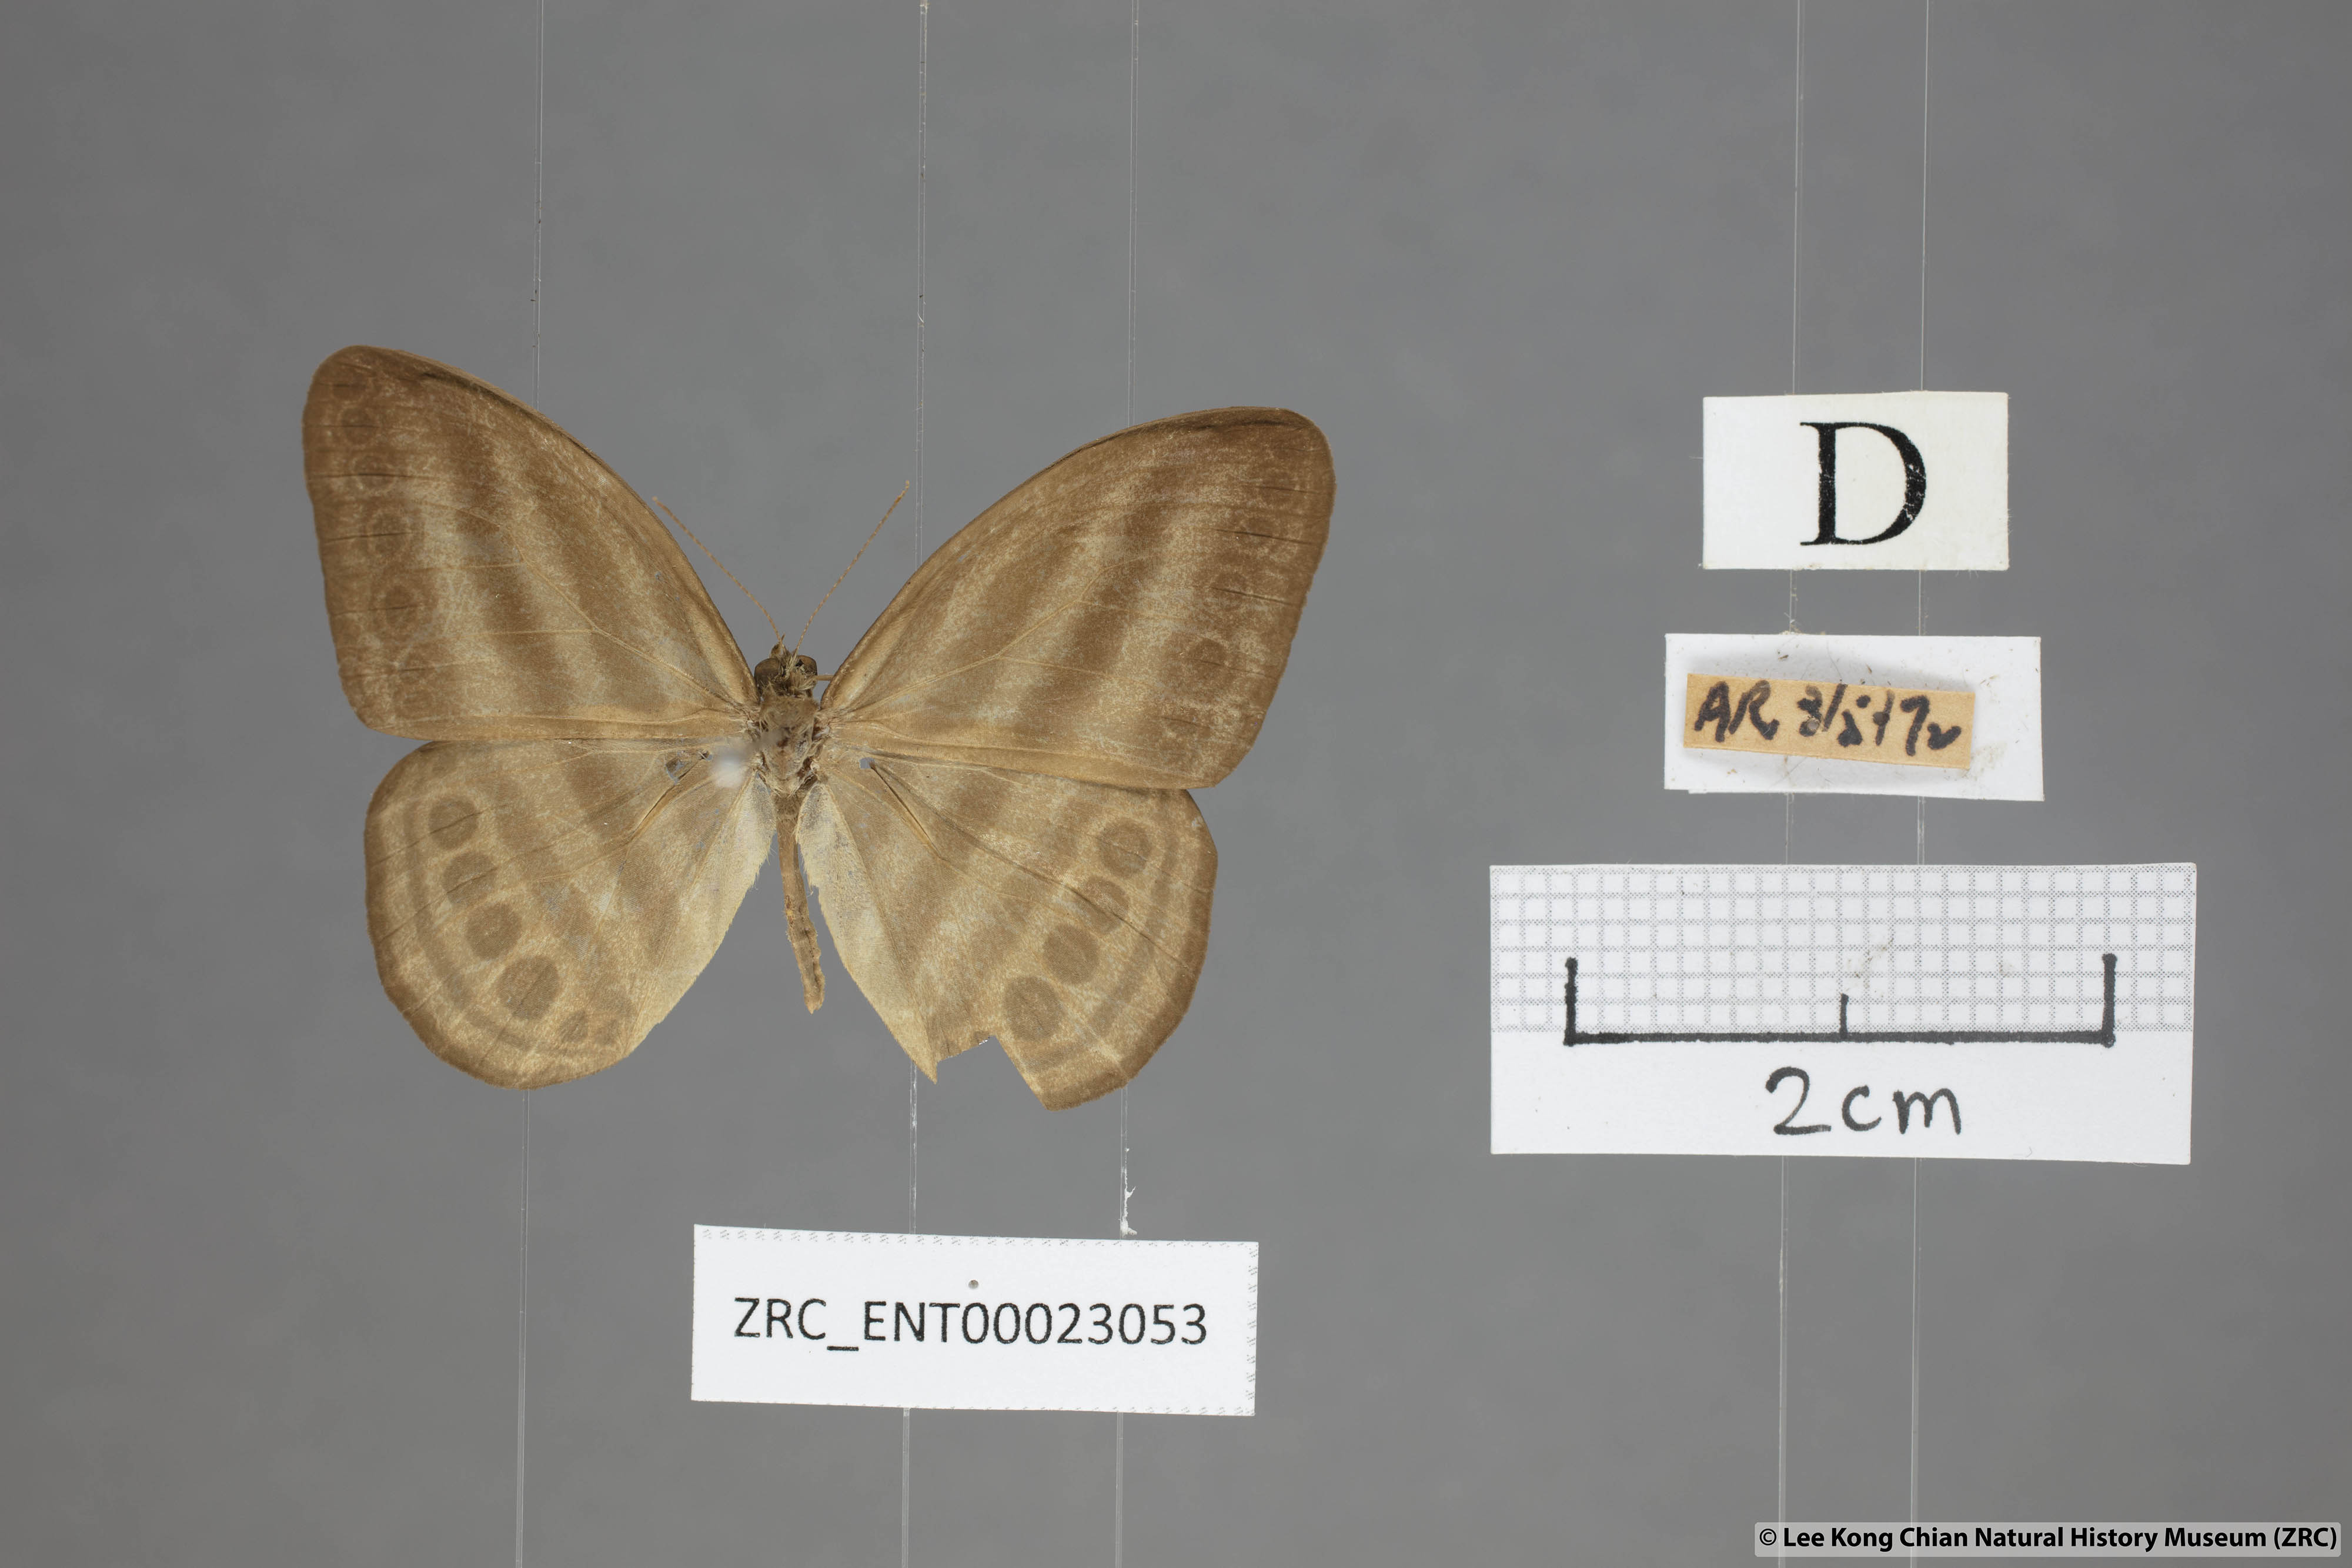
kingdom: Animalia
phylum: Arthropoda
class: Insecta
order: Lepidoptera
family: Nymphalidae
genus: Ragadia
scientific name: Ragadia makata
